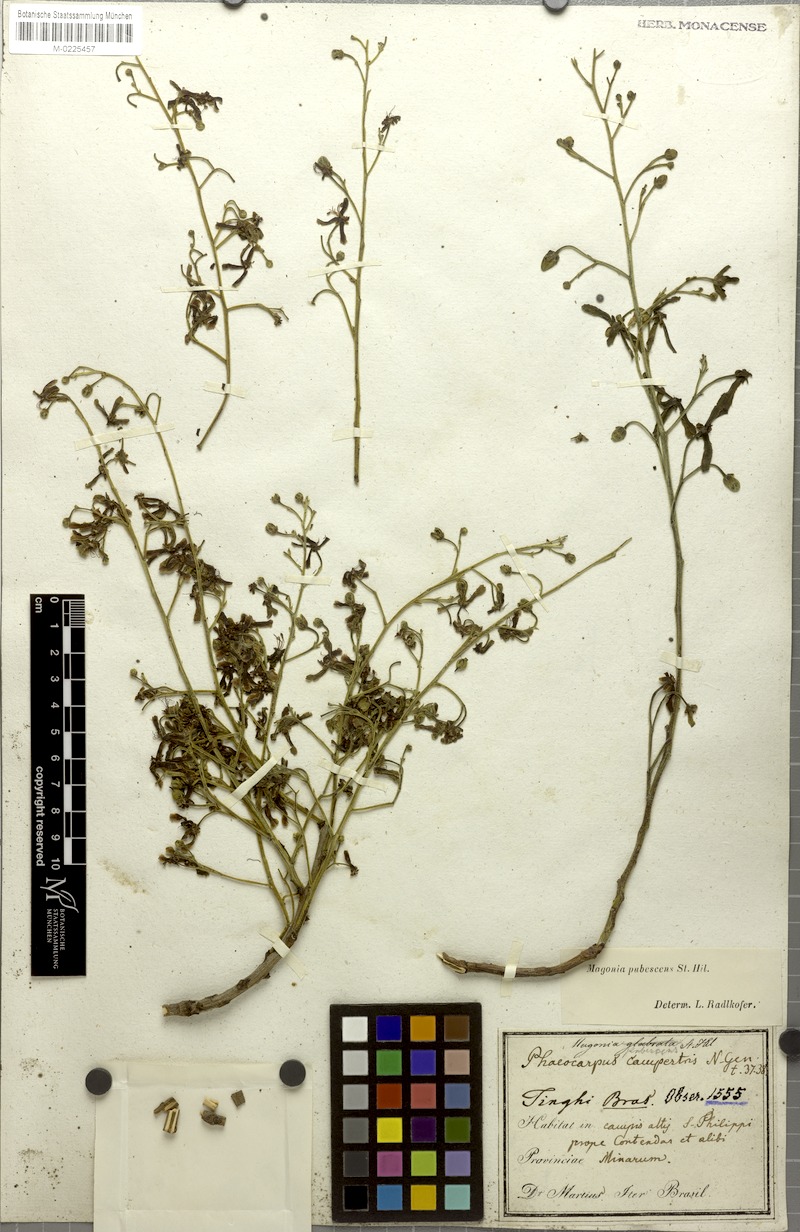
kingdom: Plantae
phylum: Tracheophyta
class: Magnoliopsida
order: Sapindales
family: Sapindaceae
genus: Magonia
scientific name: Magonia pubescens
